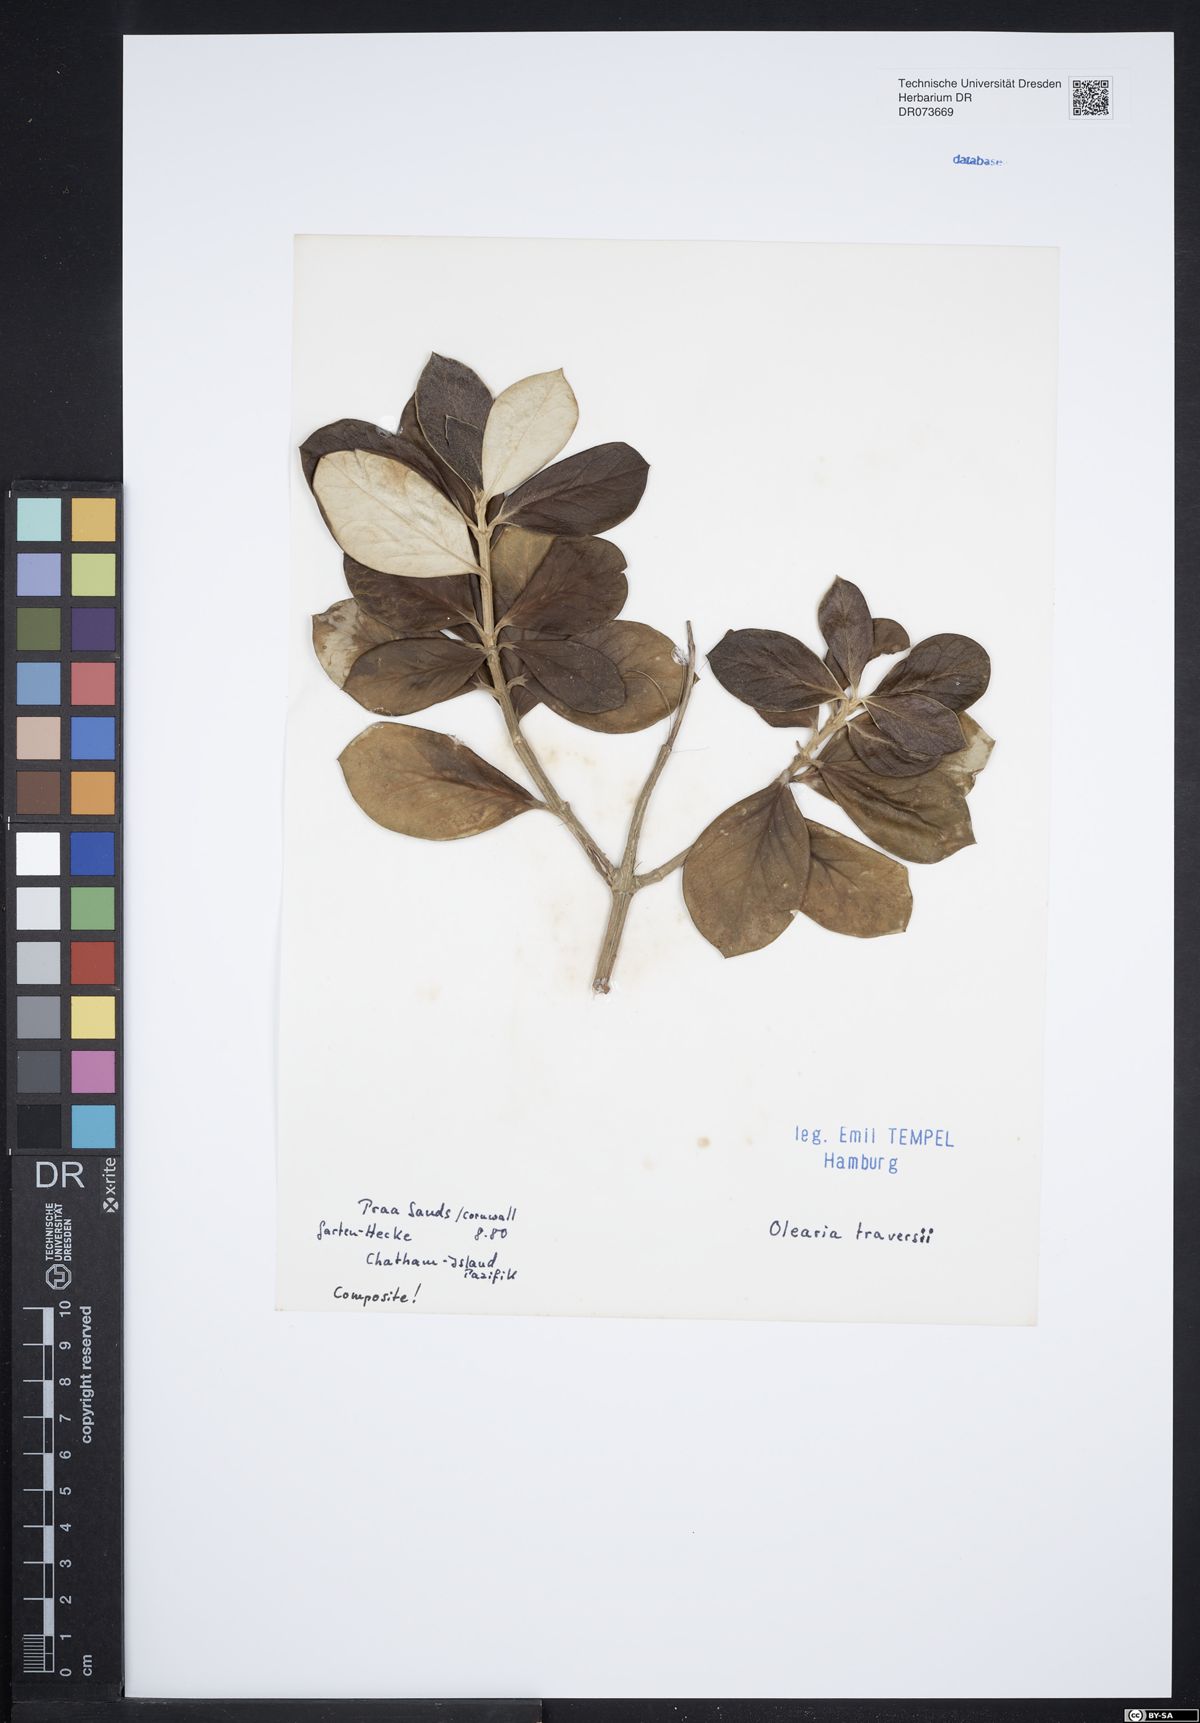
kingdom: Plantae
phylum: Tracheophyta
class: Magnoliopsida
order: Asterales
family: Asteraceae
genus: Olearia
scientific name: Olearia traversii
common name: Ake-ake
